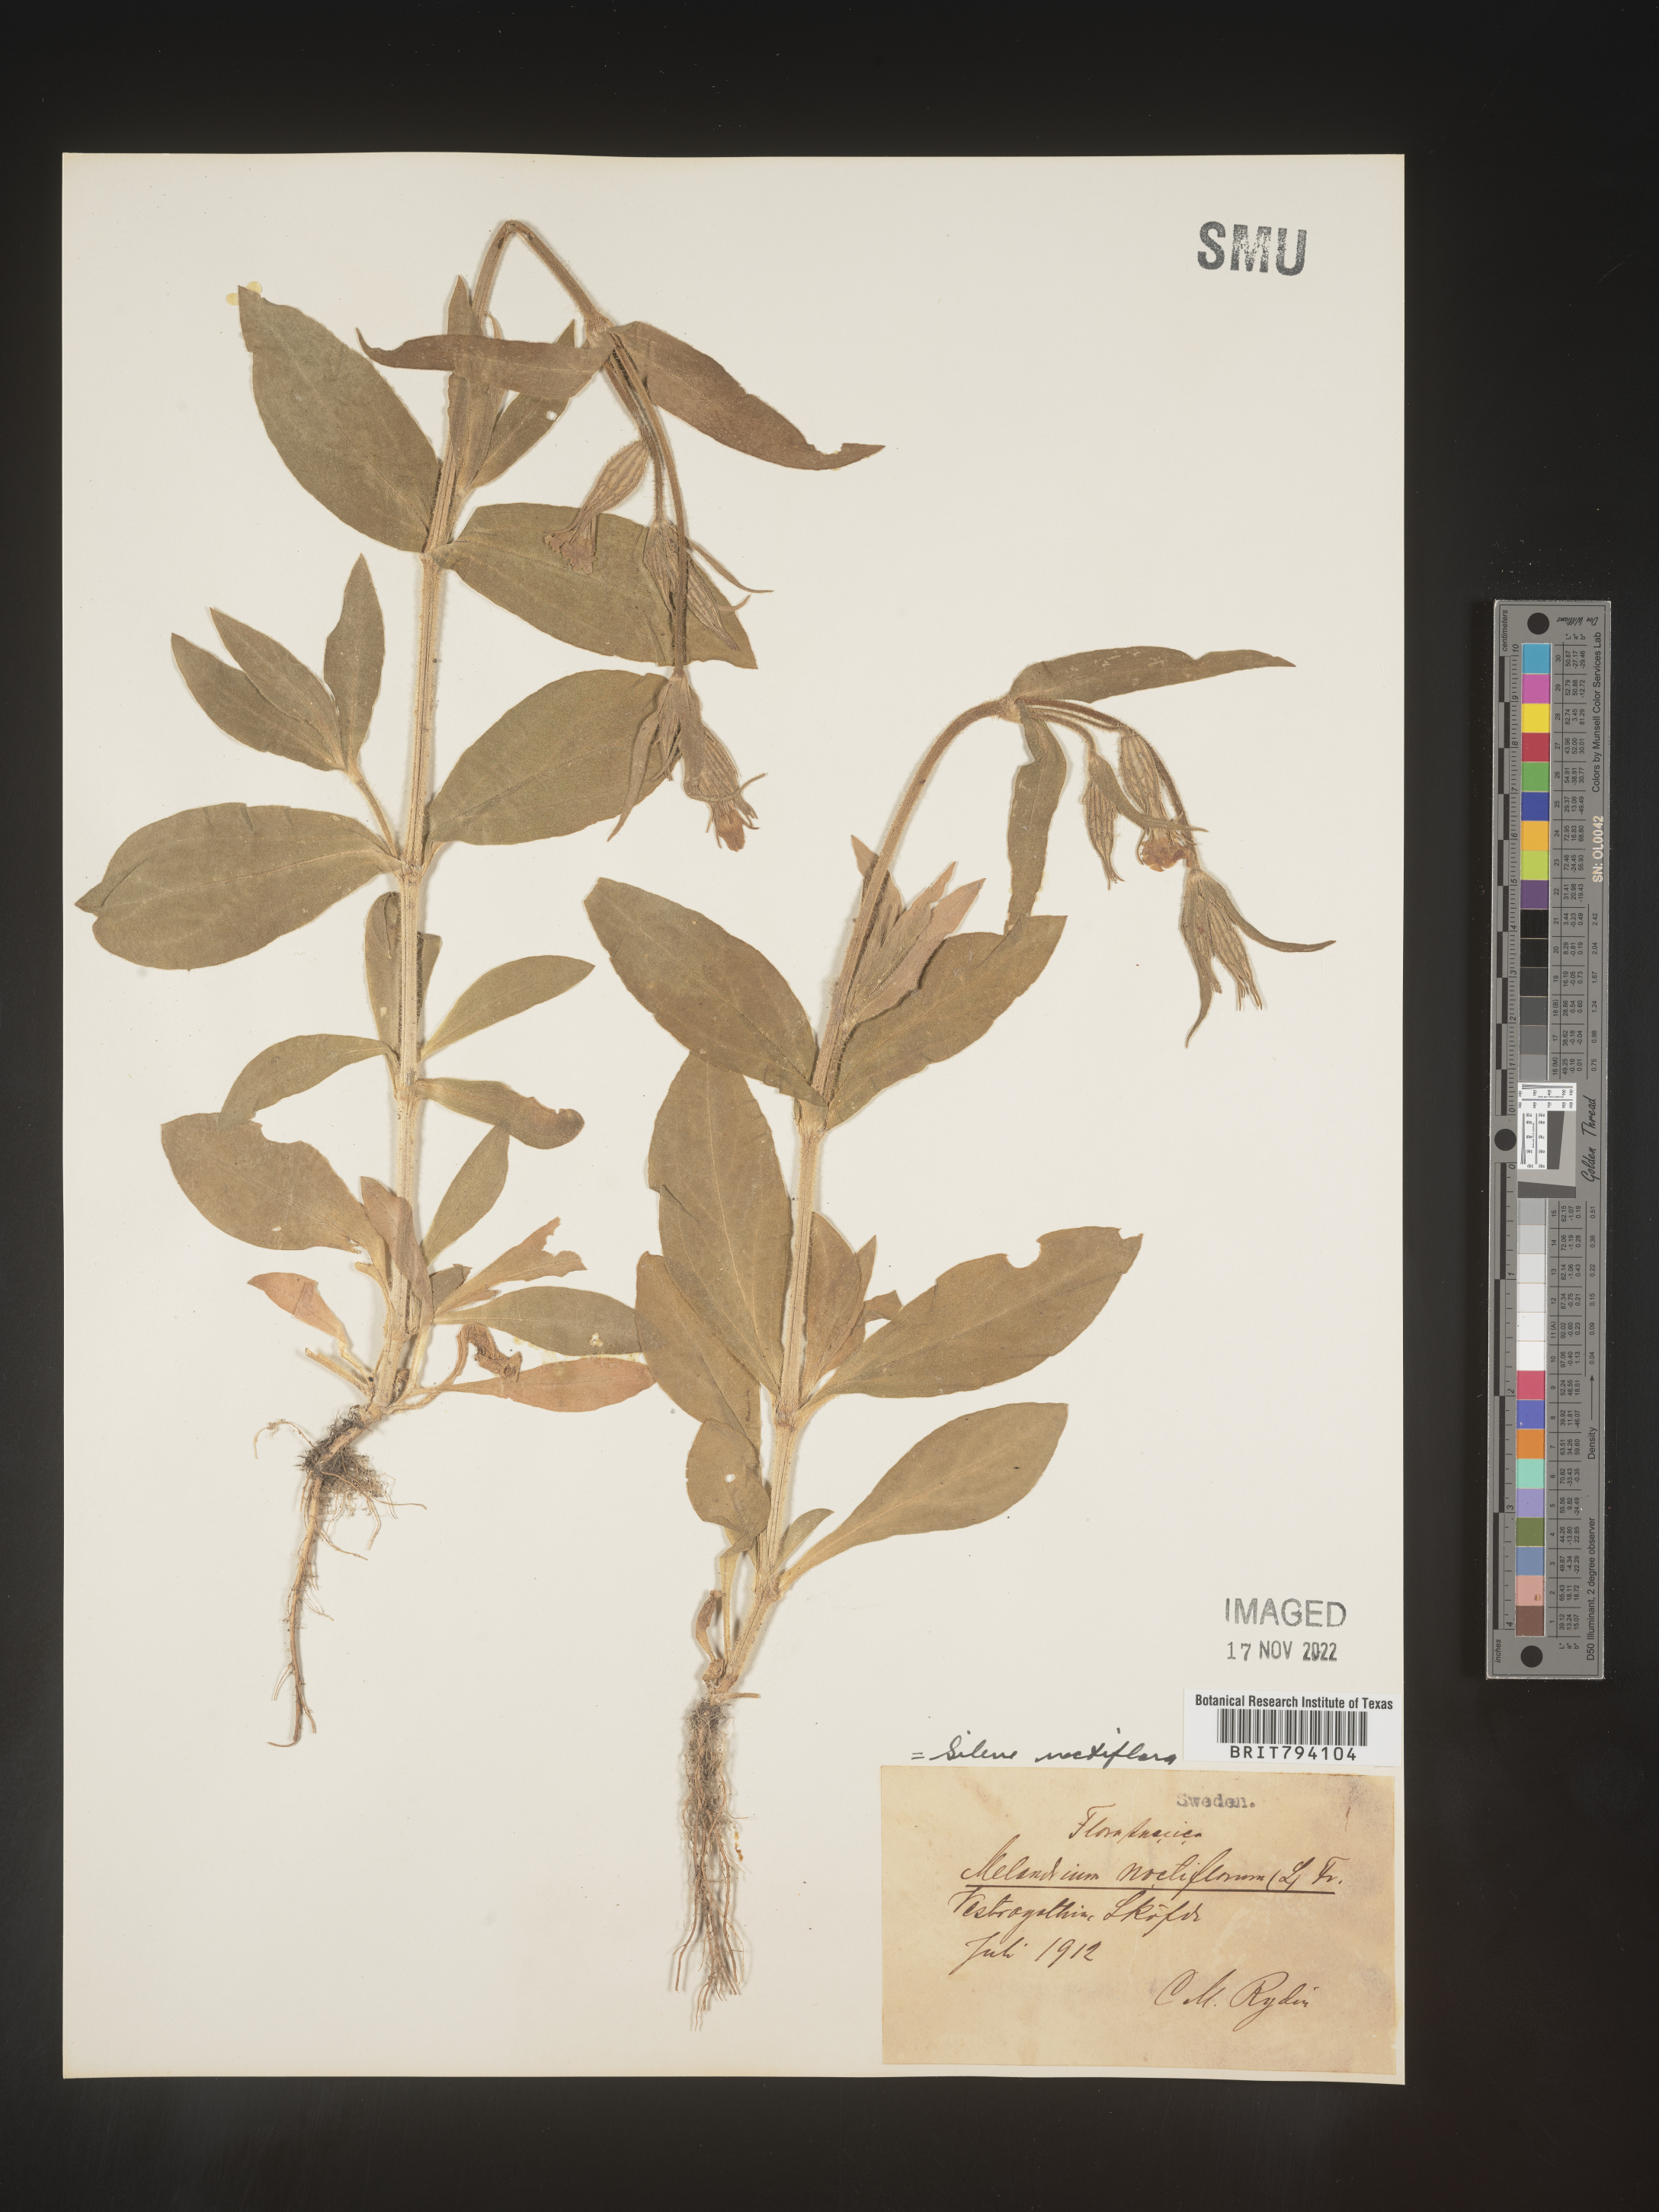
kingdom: Plantae
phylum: Tracheophyta
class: Magnoliopsida
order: Caryophyllales
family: Caryophyllaceae
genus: Silene
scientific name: Silene noctiflora
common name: Night-flowering catchfly
